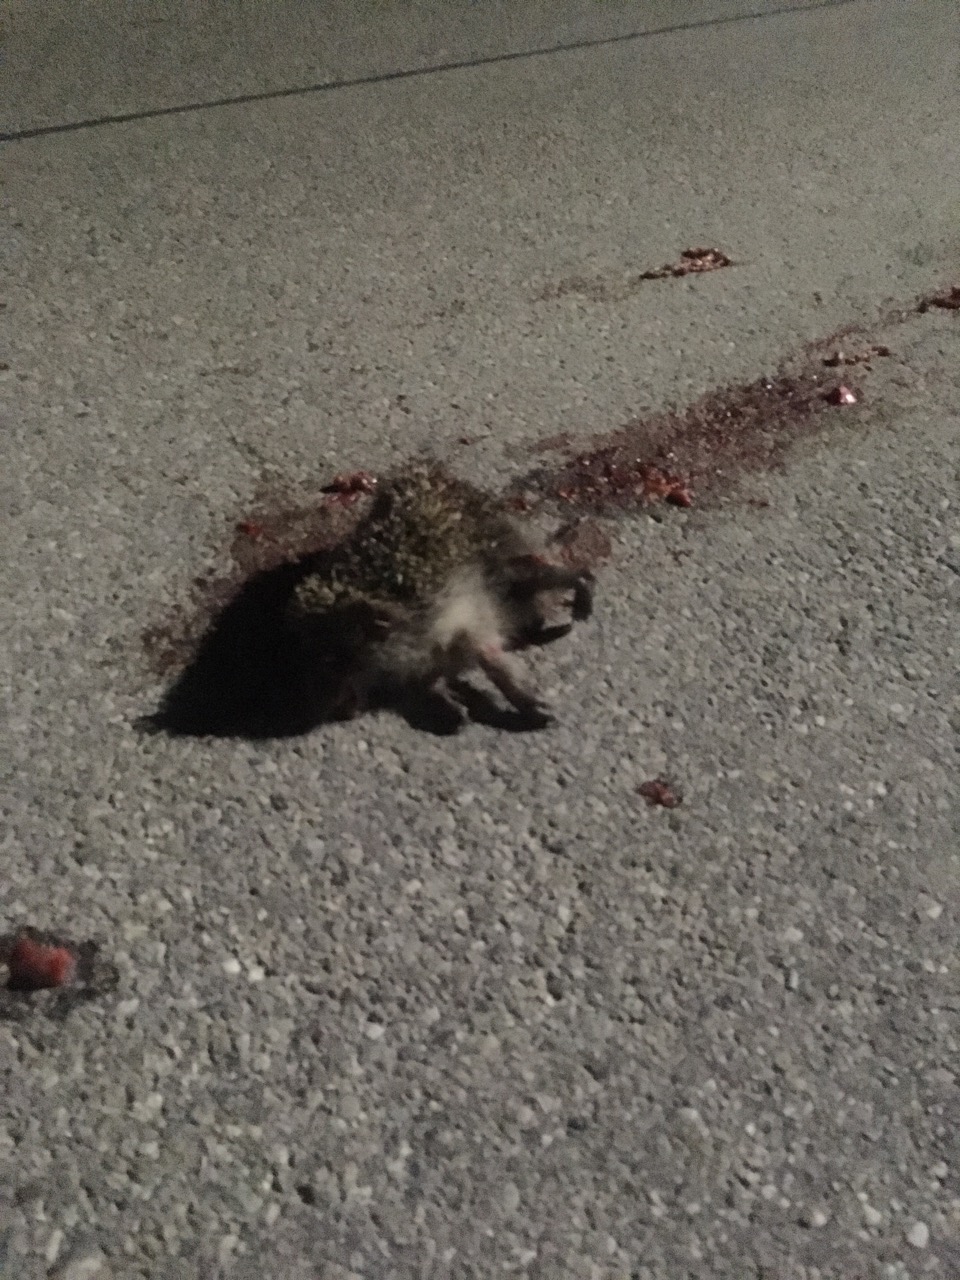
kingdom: Animalia
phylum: Chordata
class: Mammalia
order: Erinaceomorpha
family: Erinaceidae
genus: Erinaceus
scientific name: Erinaceus
